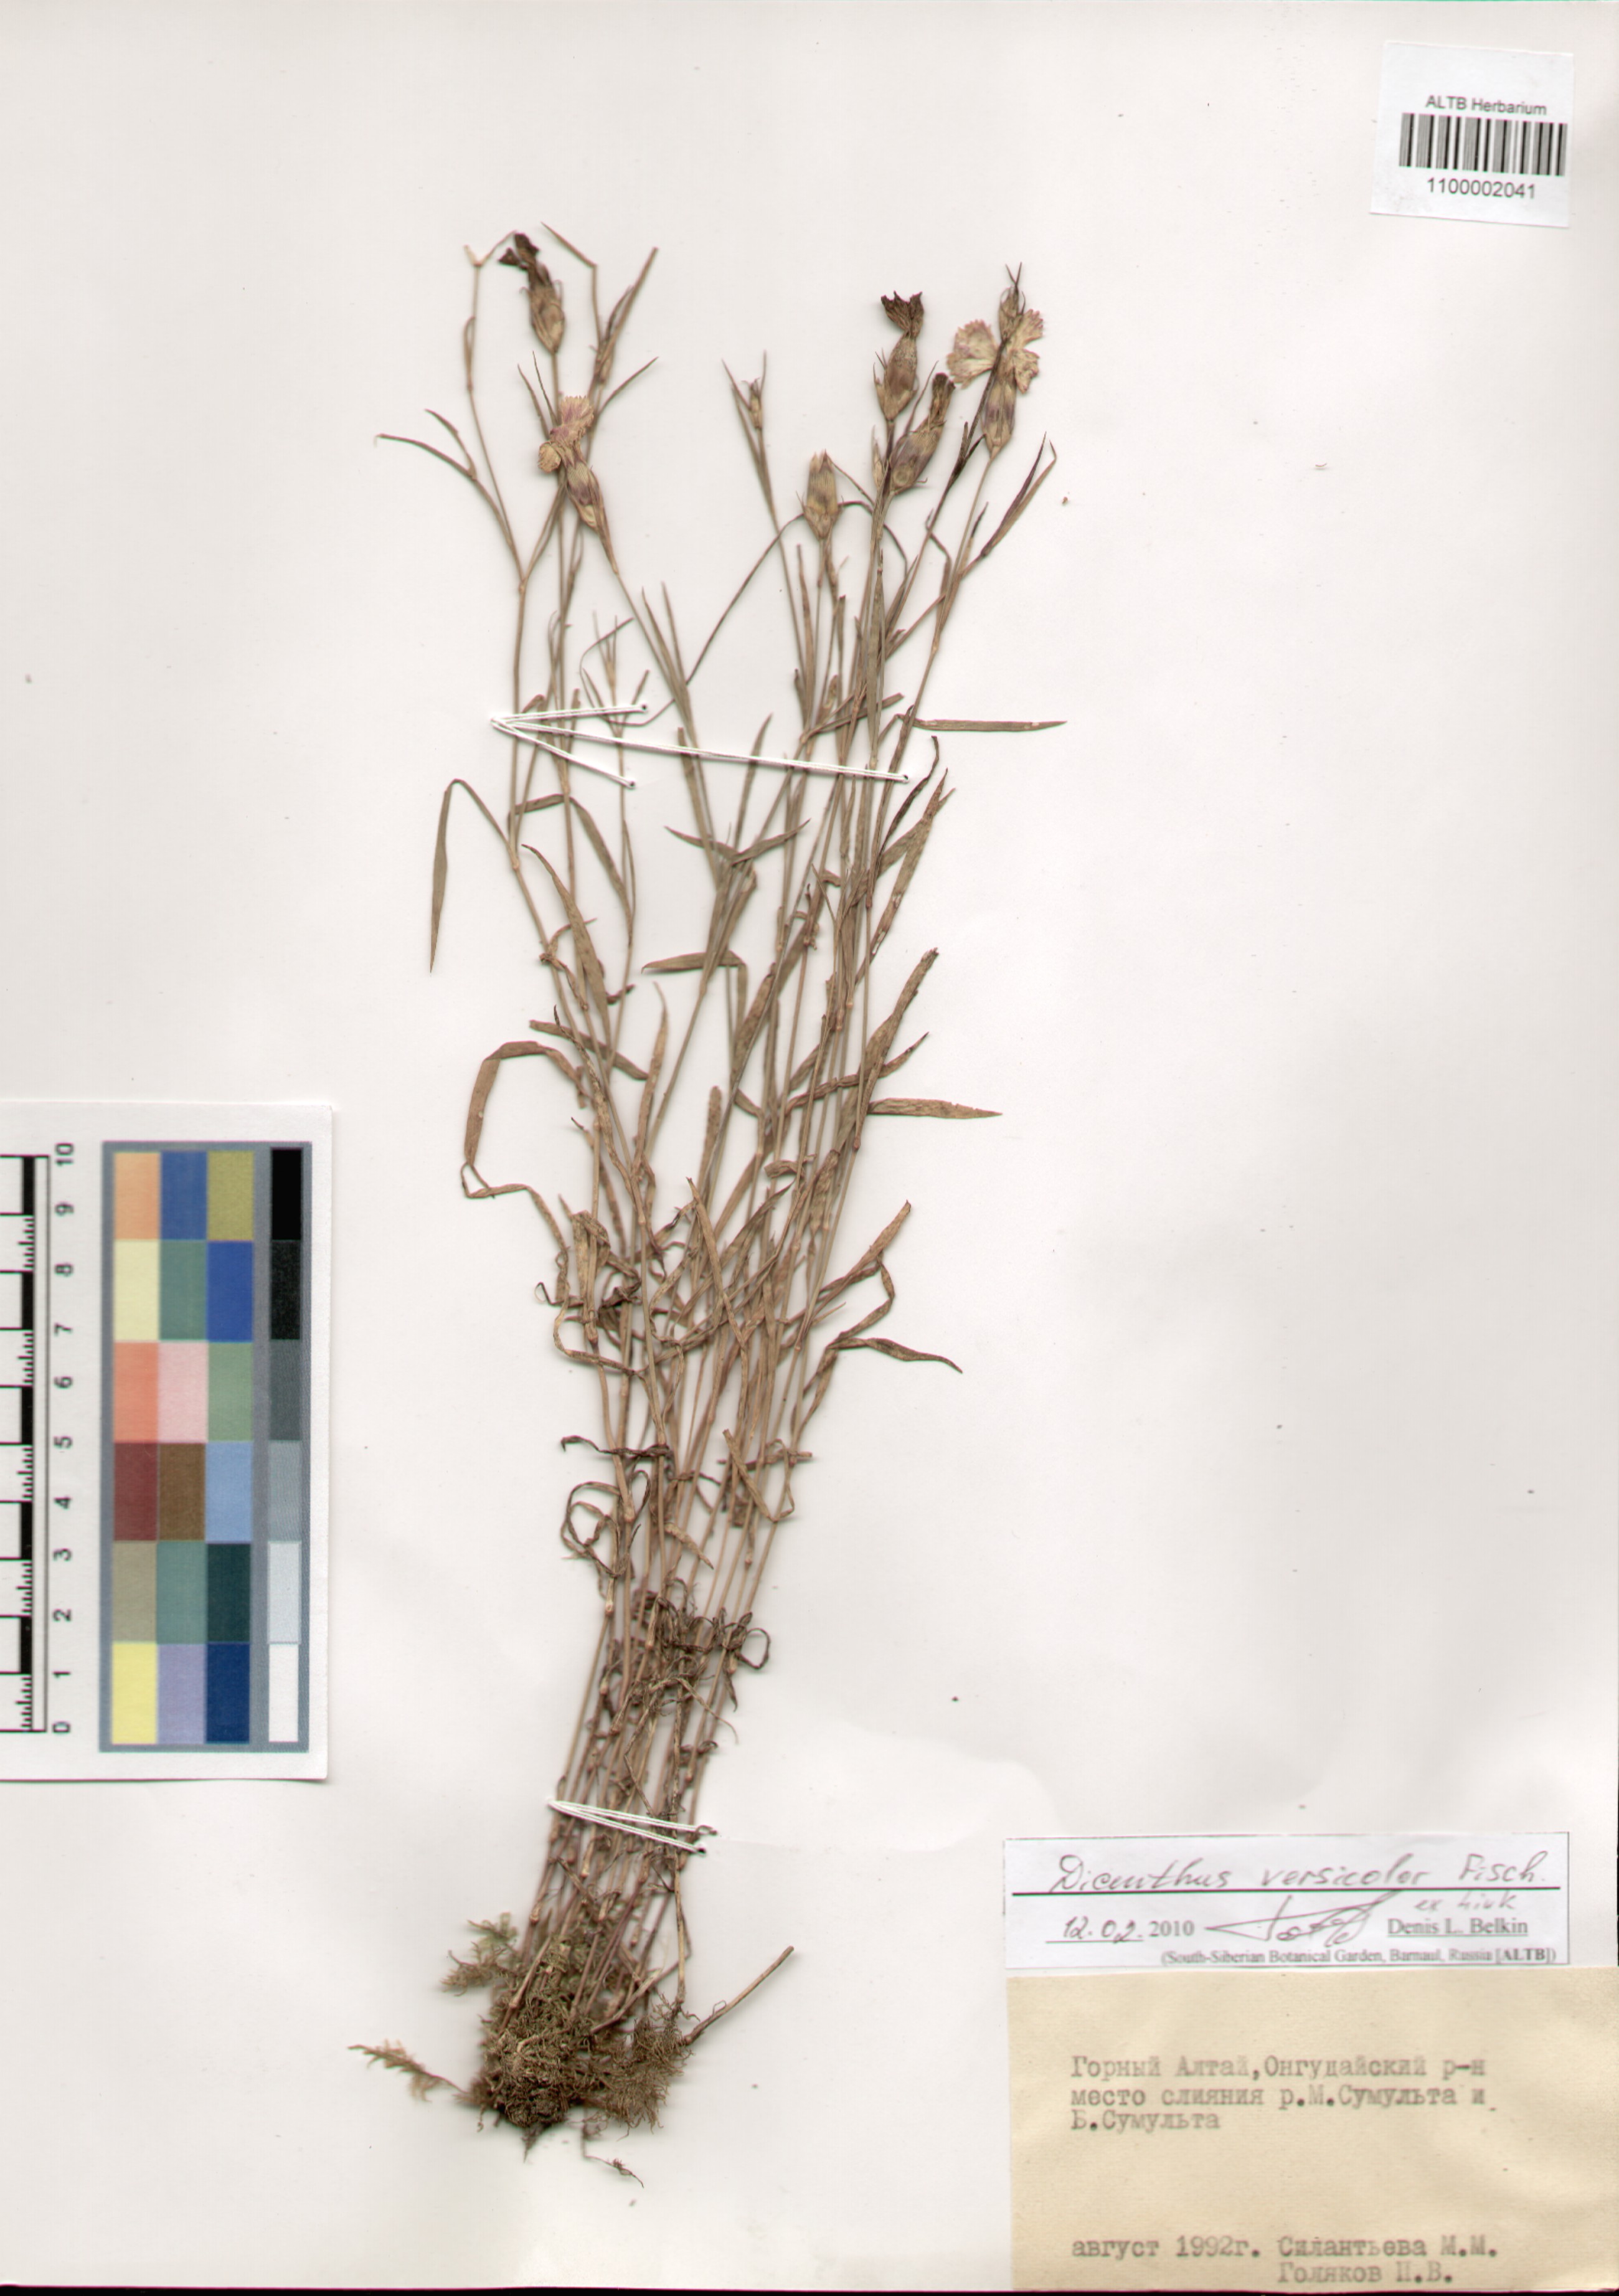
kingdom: Plantae
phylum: Tracheophyta
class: Magnoliopsida
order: Caryophyllales
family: Caryophyllaceae
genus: Dianthus
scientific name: Dianthus chinensis
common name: Rainbow pink
